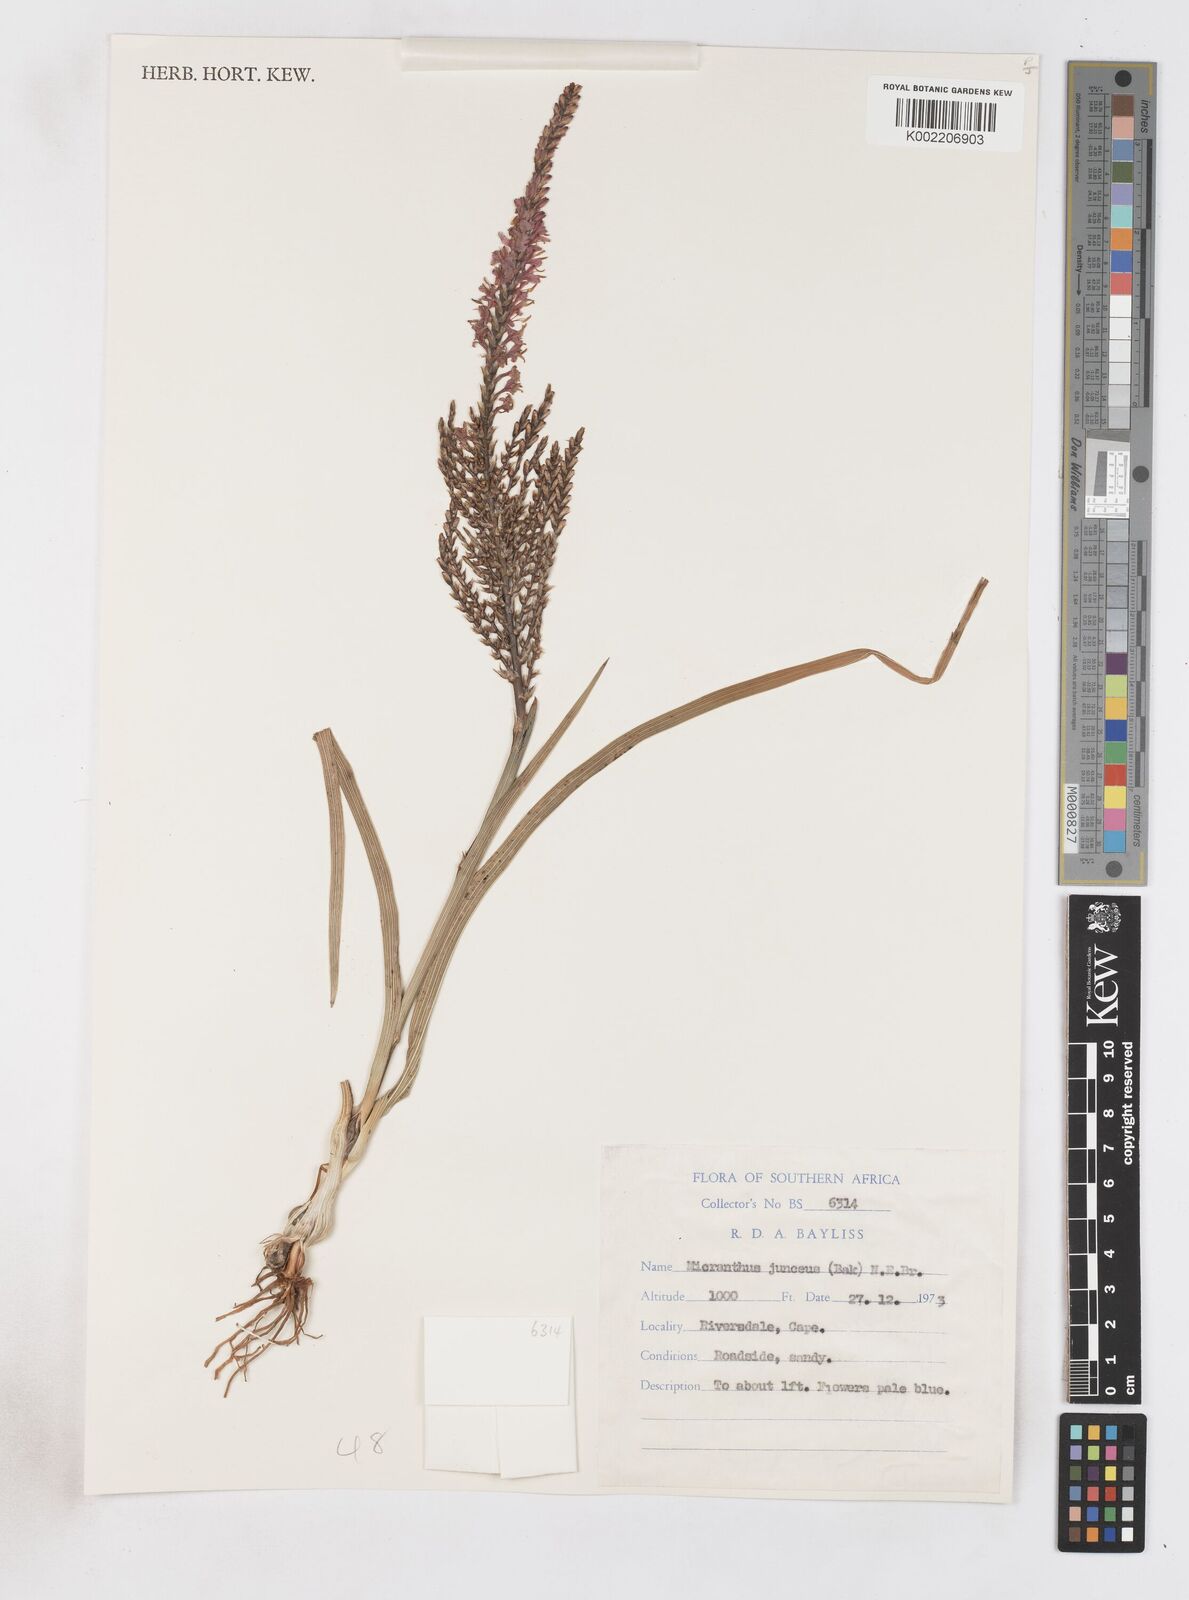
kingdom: Plantae
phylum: Tracheophyta
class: Liliopsida
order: Asparagales
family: Iridaceae
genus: Micranthus
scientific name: Micranthus plantagineus
